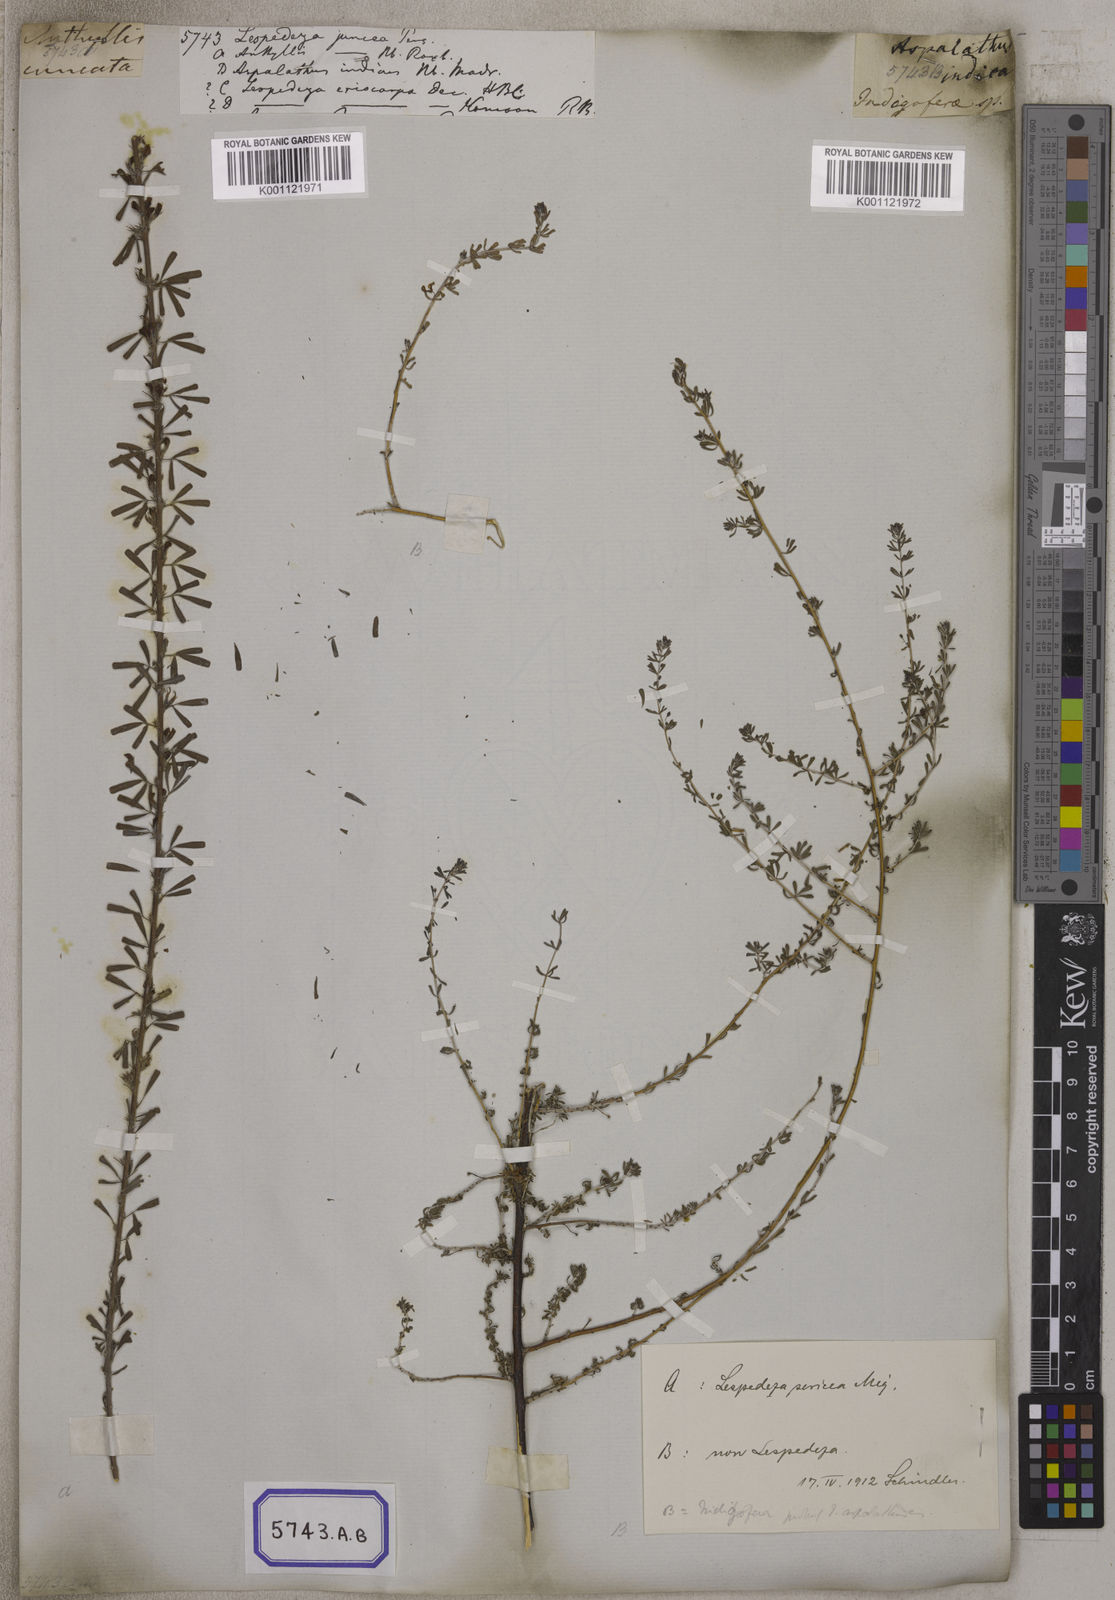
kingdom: Plantae
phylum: Tracheophyta
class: Magnoliopsida
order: Fabales
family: Fabaceae
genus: Indigofera
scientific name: Indigofera aspalathoides
